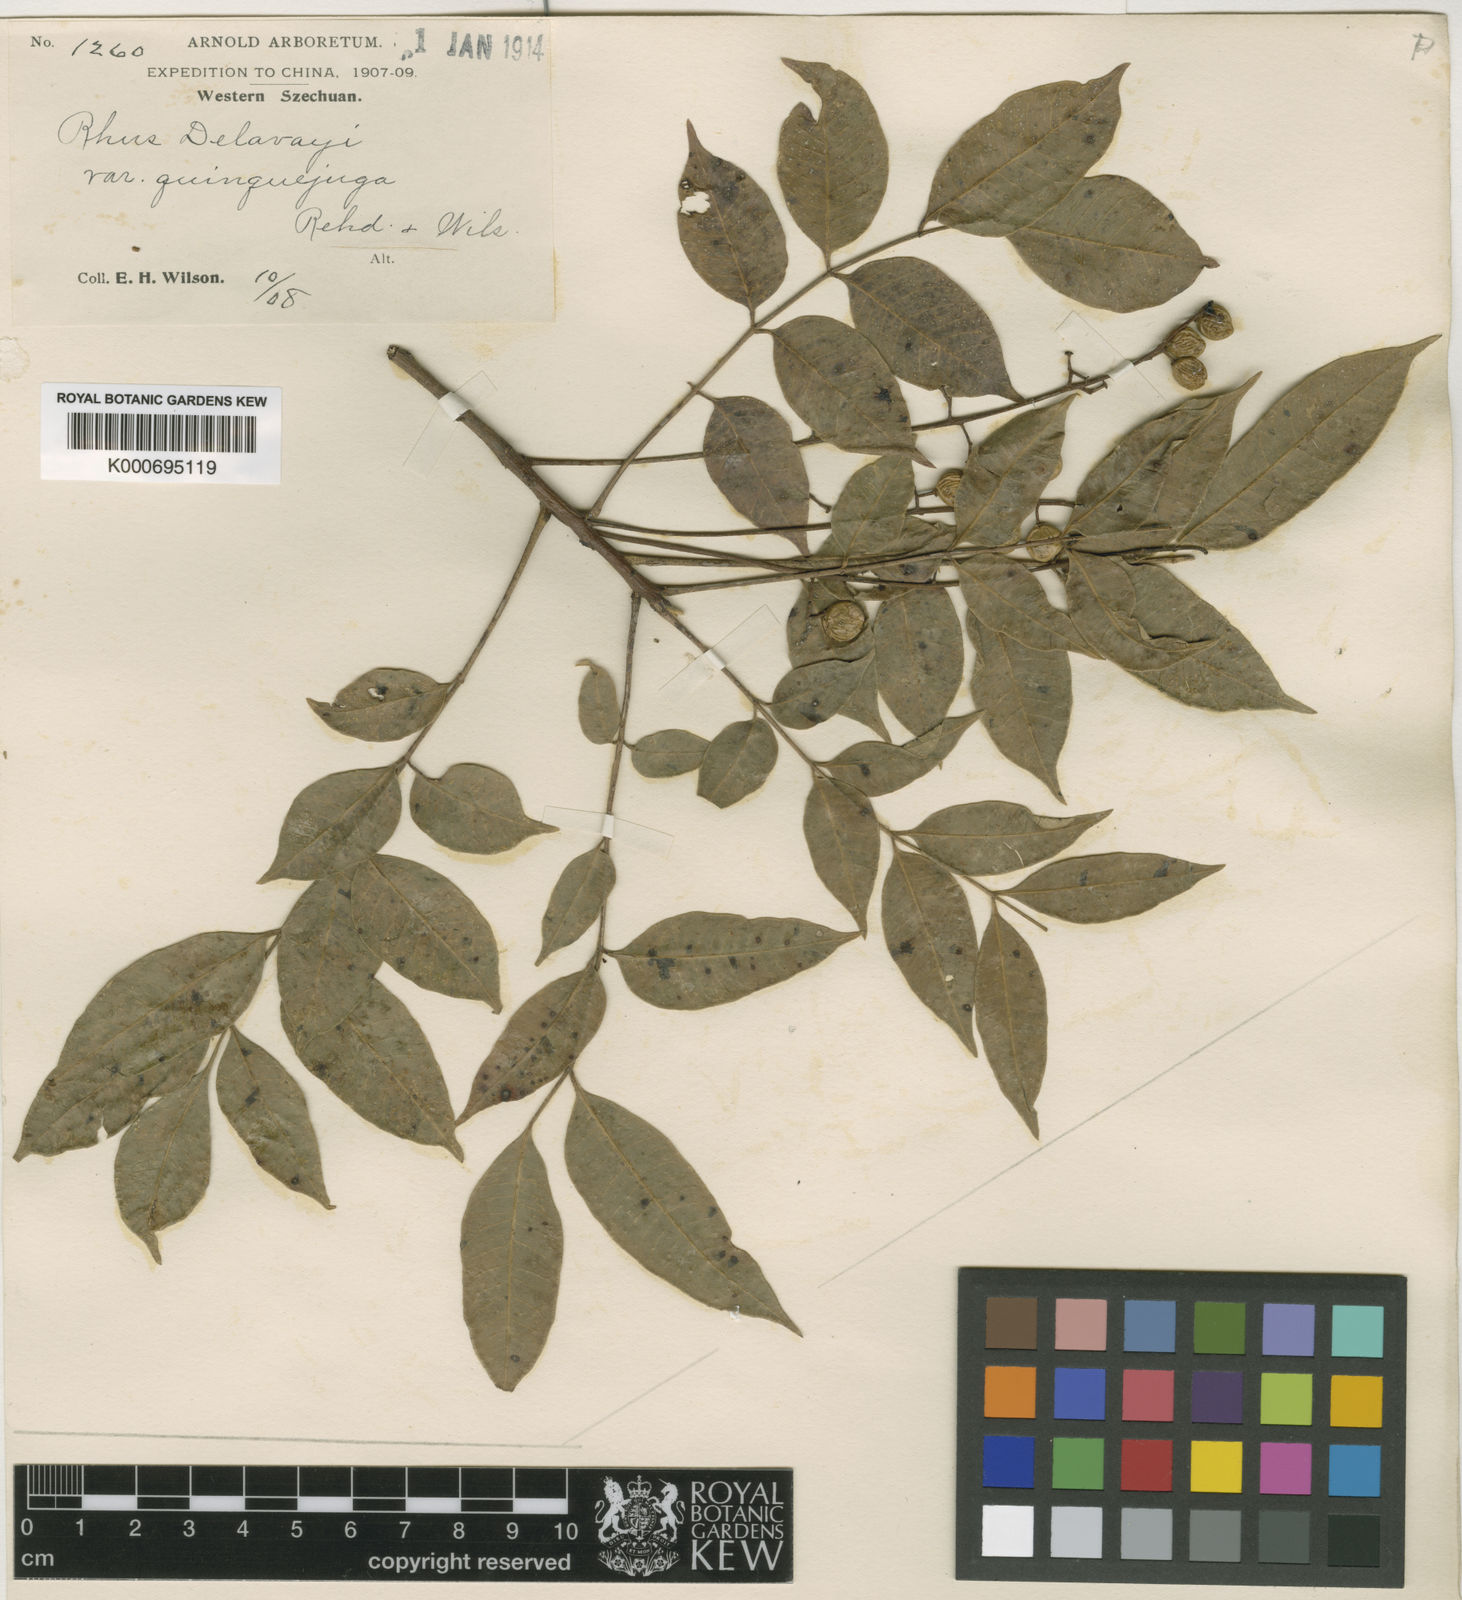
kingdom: Plantae
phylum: Tracheophyta
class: Magnoliopsida
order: Sapindales
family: Anacardiaceae
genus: Toxicodendron
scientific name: Toxicodendron delavayi
